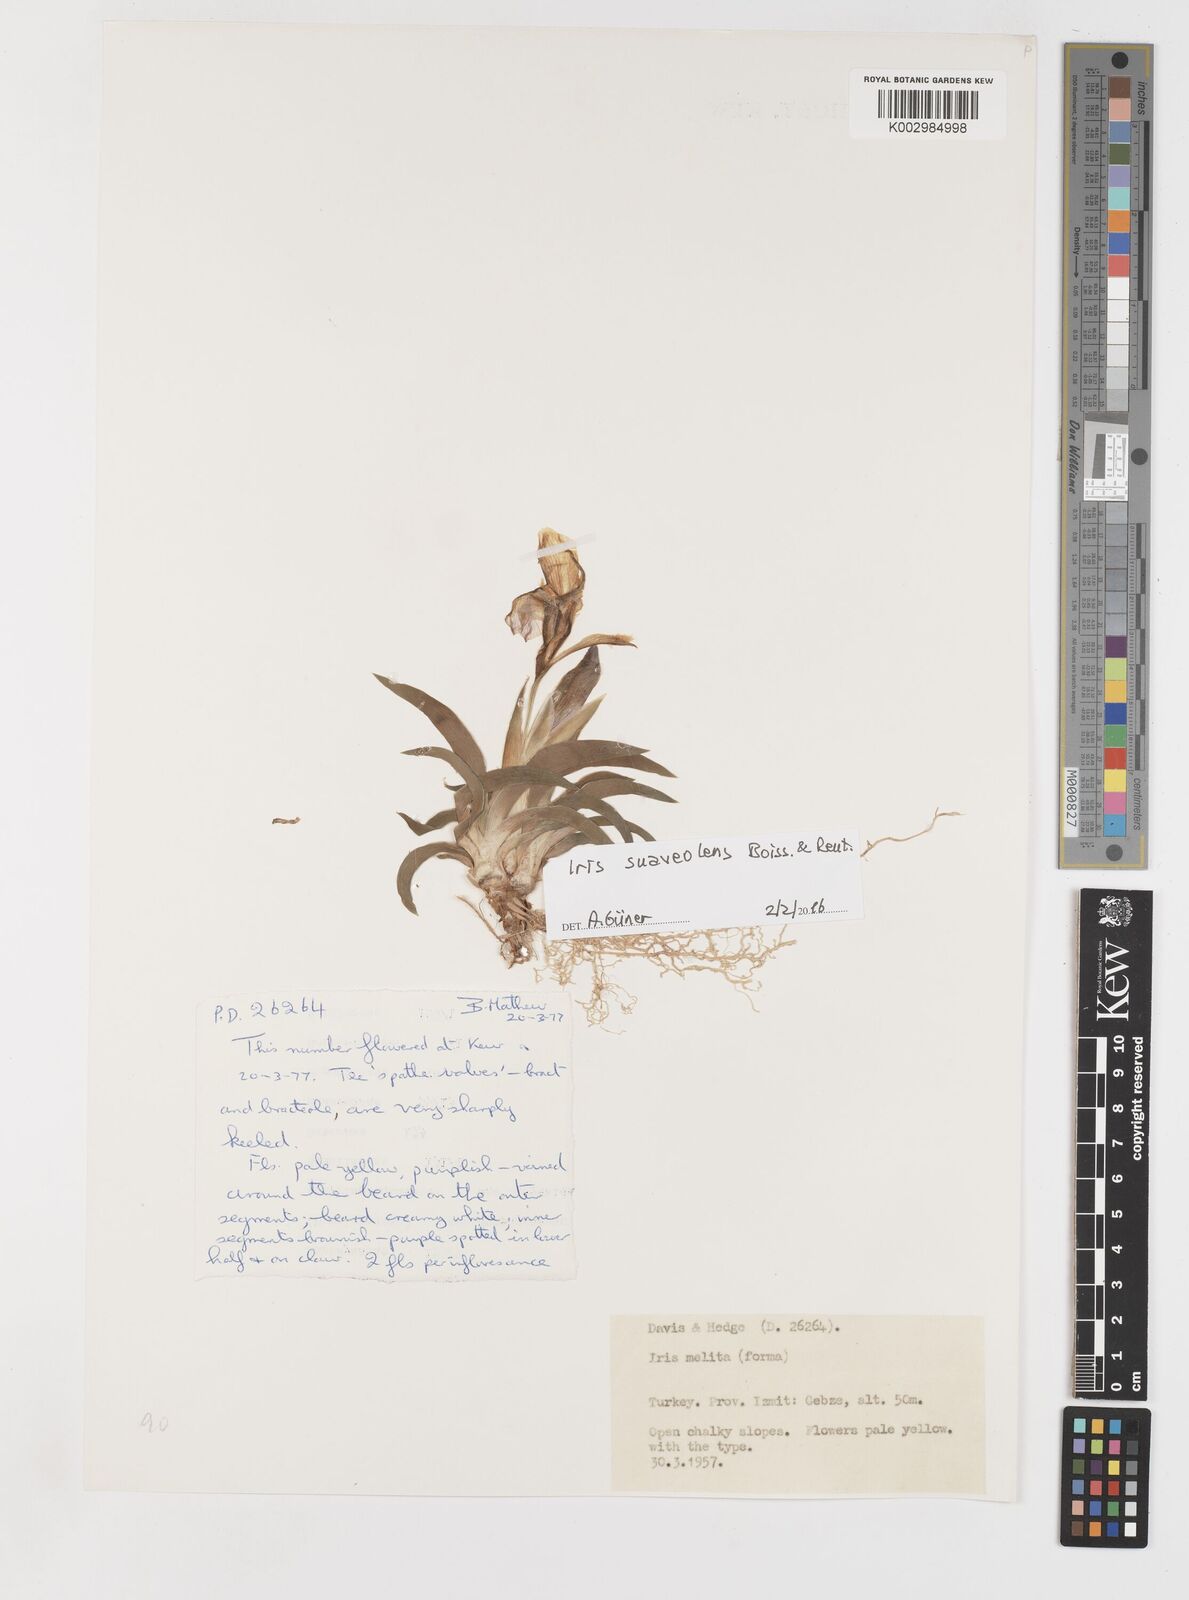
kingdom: Plantae
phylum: Tracheophyta
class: Liliopsida
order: Asparagales
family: Iridaceae
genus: Iris
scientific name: Iris suaveolens
